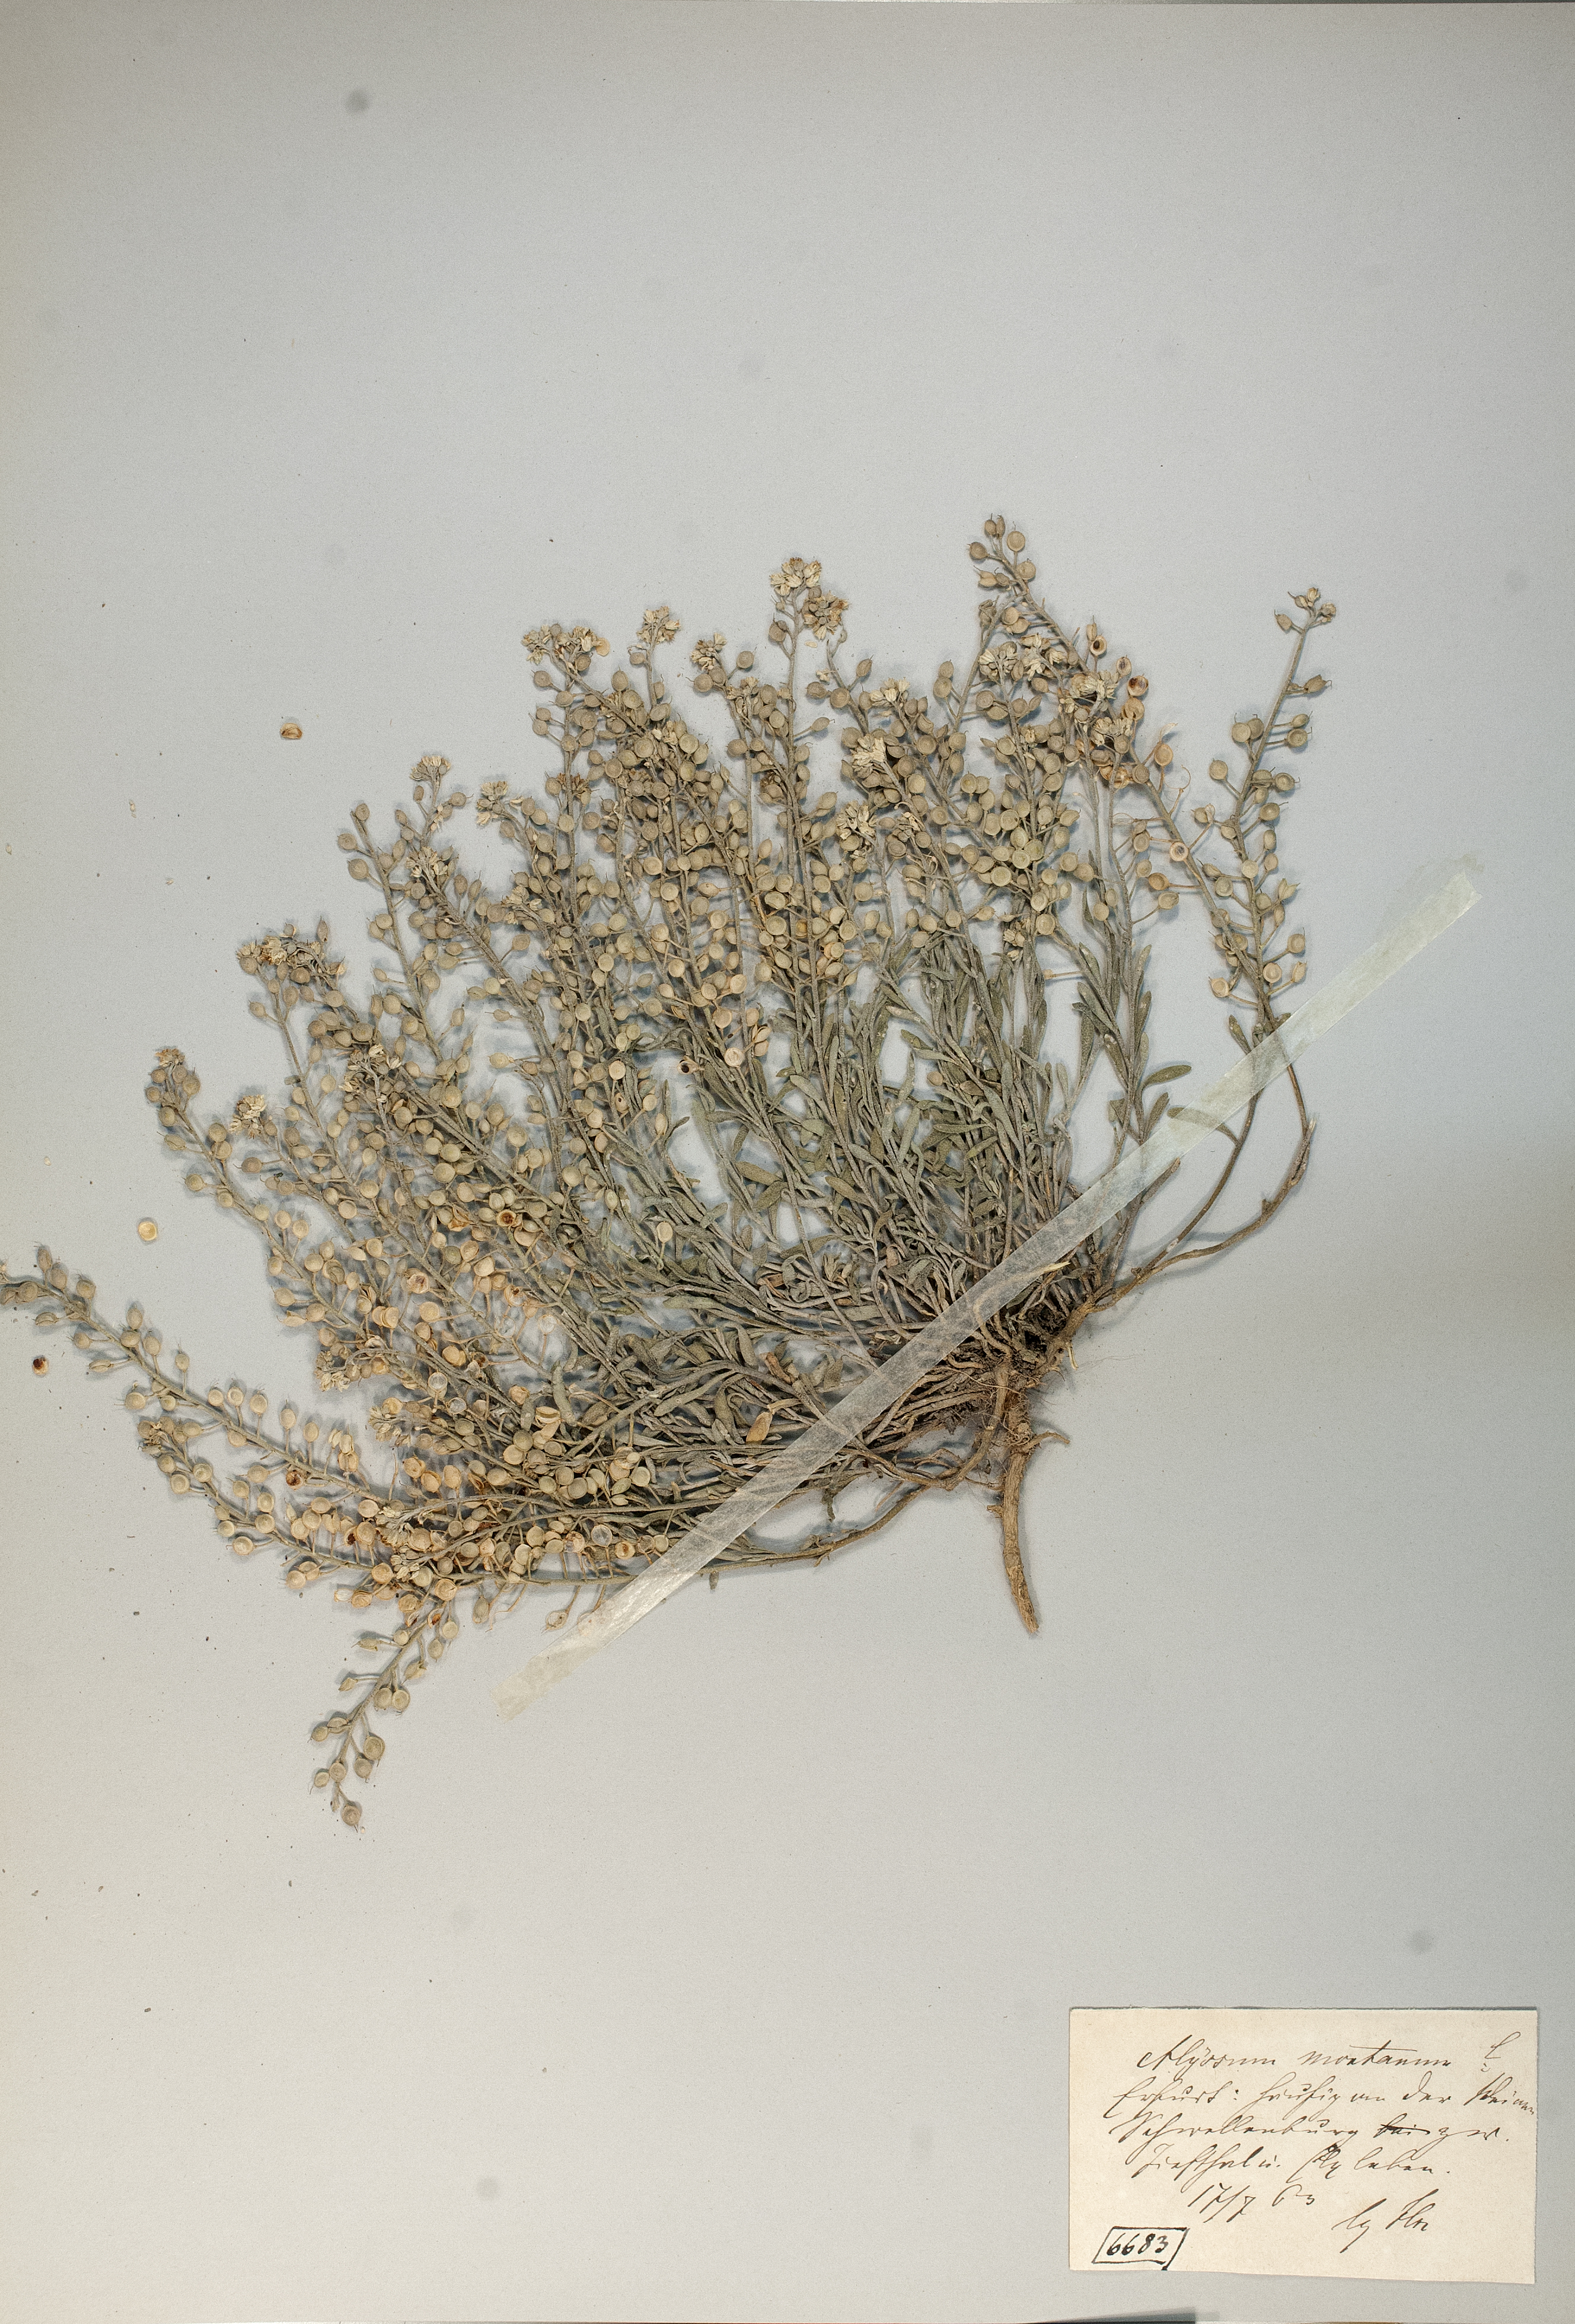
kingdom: Plantae
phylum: Tracheophyta
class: Magnoliopsida
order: Brassicales
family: Brassicaceae
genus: Alyssum
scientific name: Alyssum montanum
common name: Mountain alison
